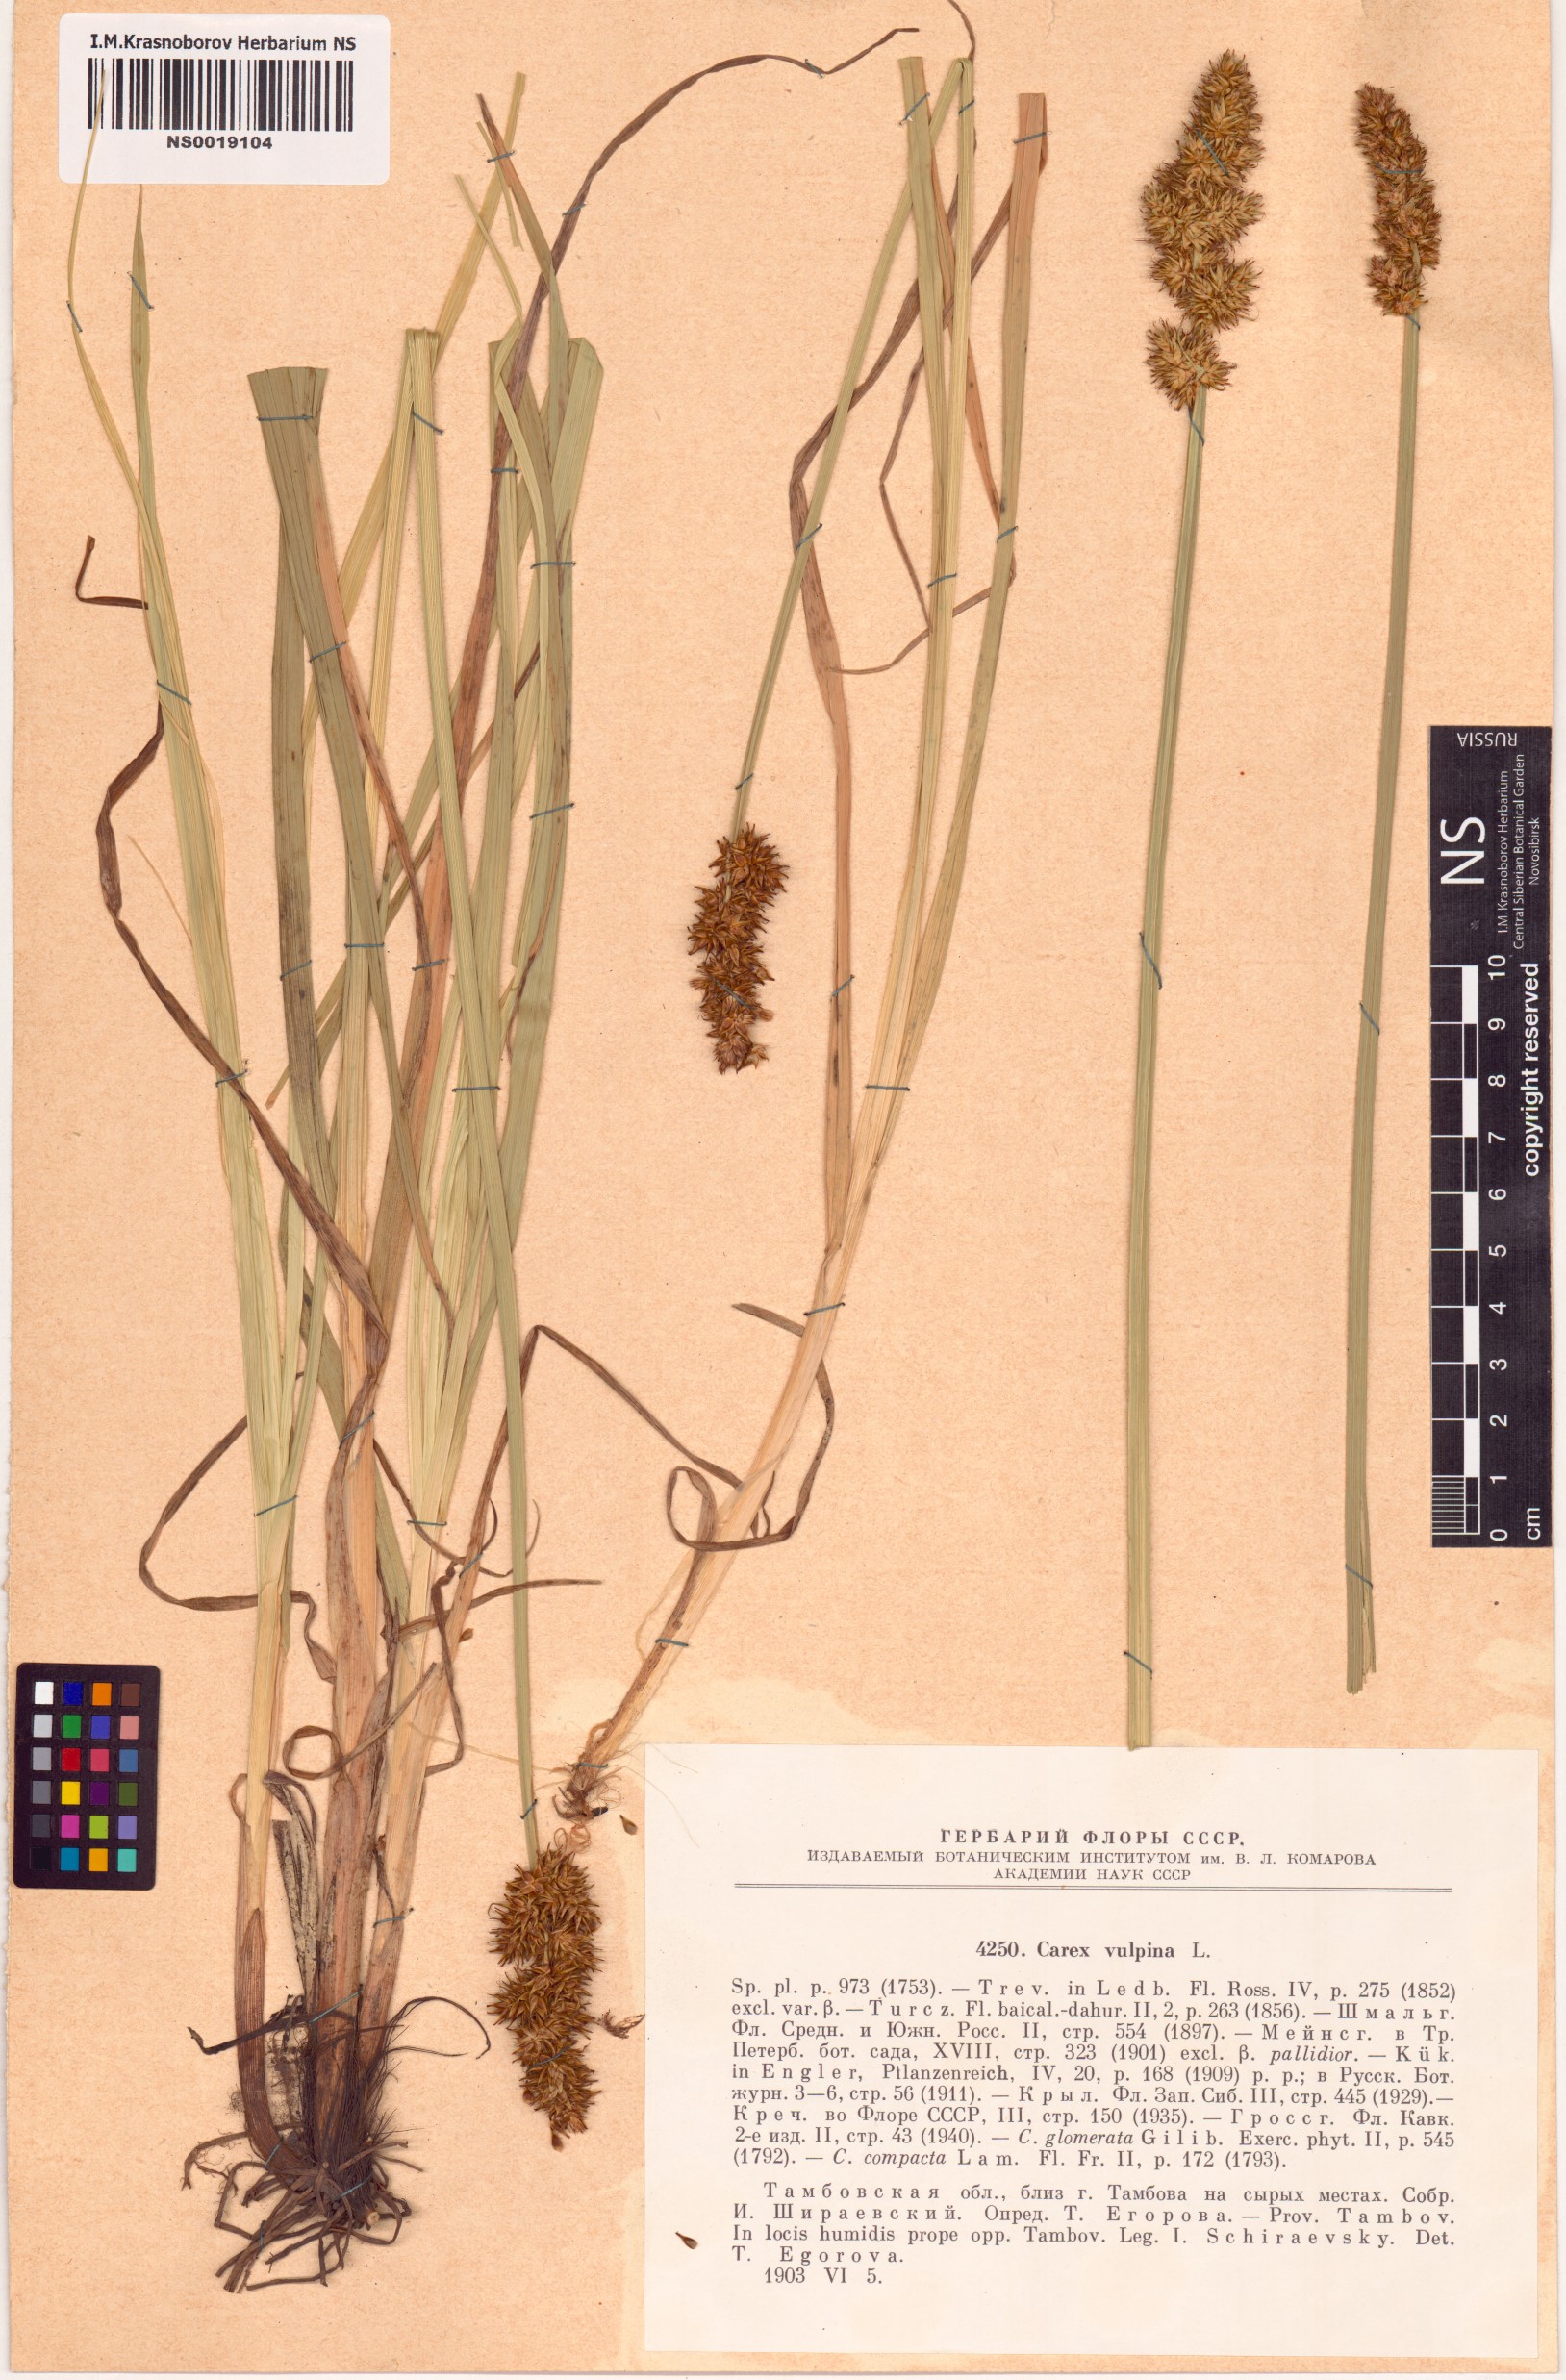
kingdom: Plantae
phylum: Tracheophyta
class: Liliopsida
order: Poales
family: Cyperaceae
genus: Carex
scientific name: Carex vulpina
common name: True fox-sedge
